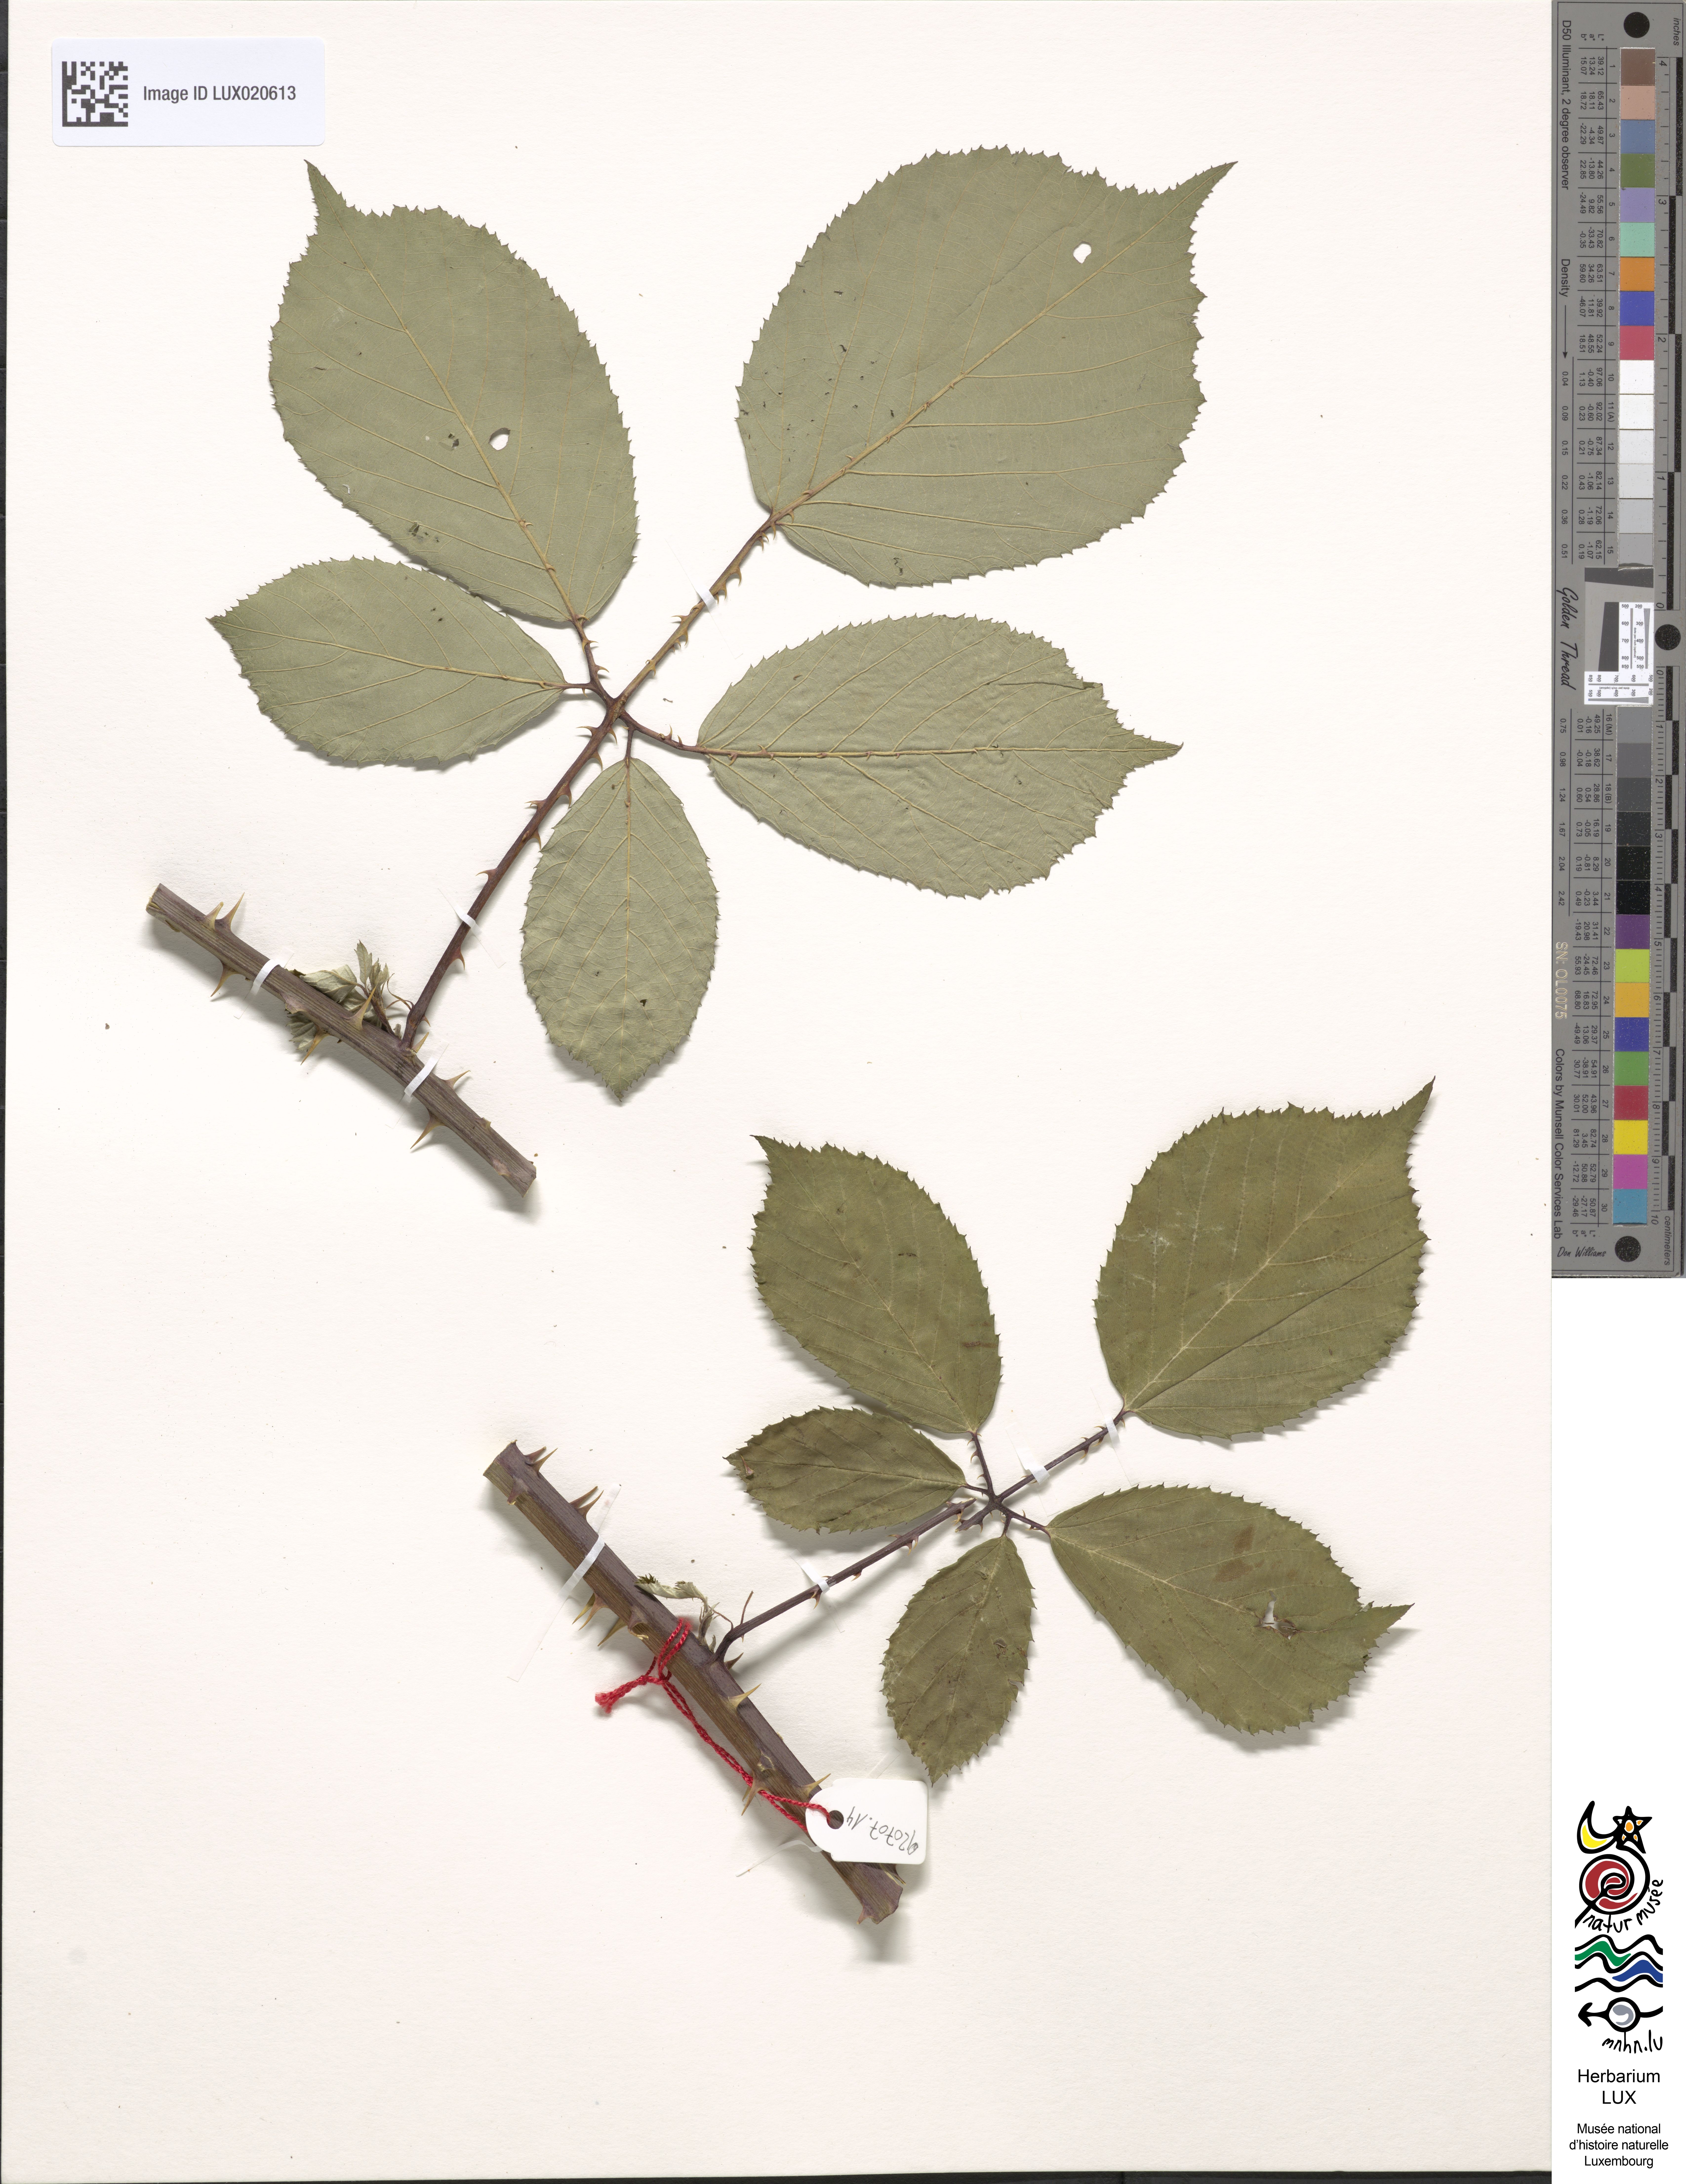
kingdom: Plantae
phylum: Tracheophyta
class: Magnoliopsida
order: Rosales
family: Rosaceae
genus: Rubus
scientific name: Rubus bifrons
